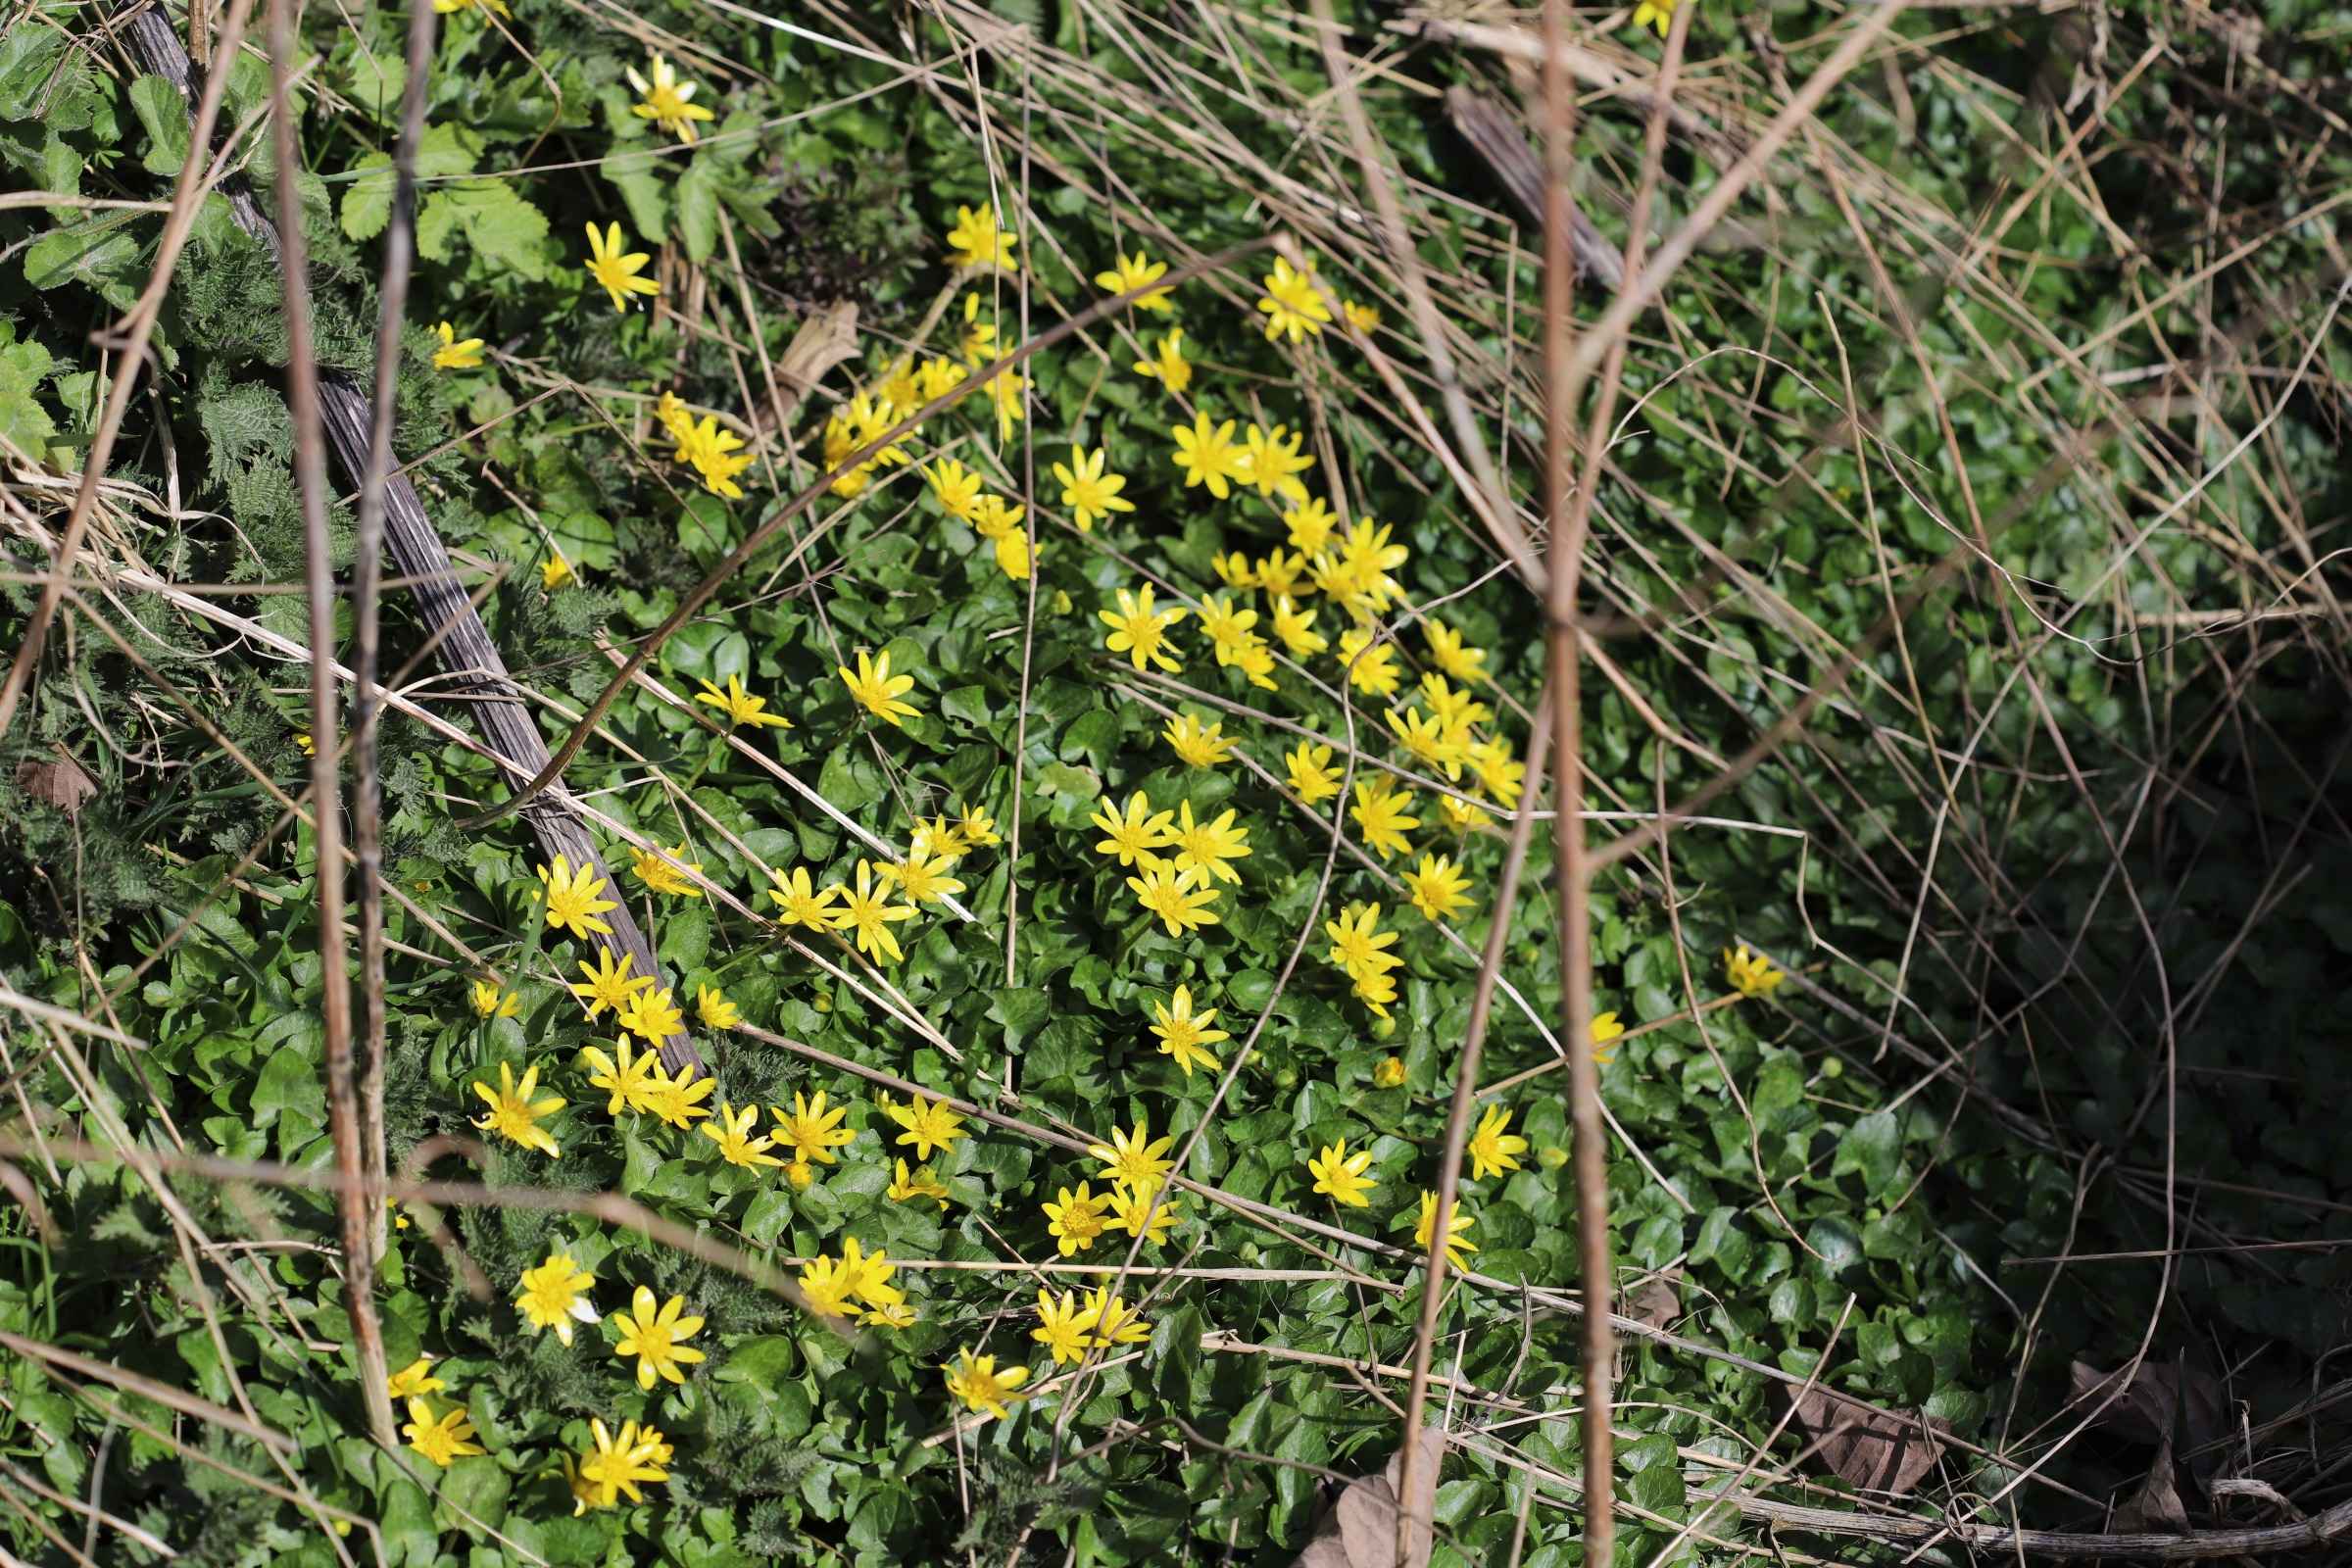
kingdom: Plantae
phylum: Tracheophyta
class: Magnoliopsida
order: Ranunculales
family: Ranunculaceae
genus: Ficaria
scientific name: Ficaria verna
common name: Vorterod
